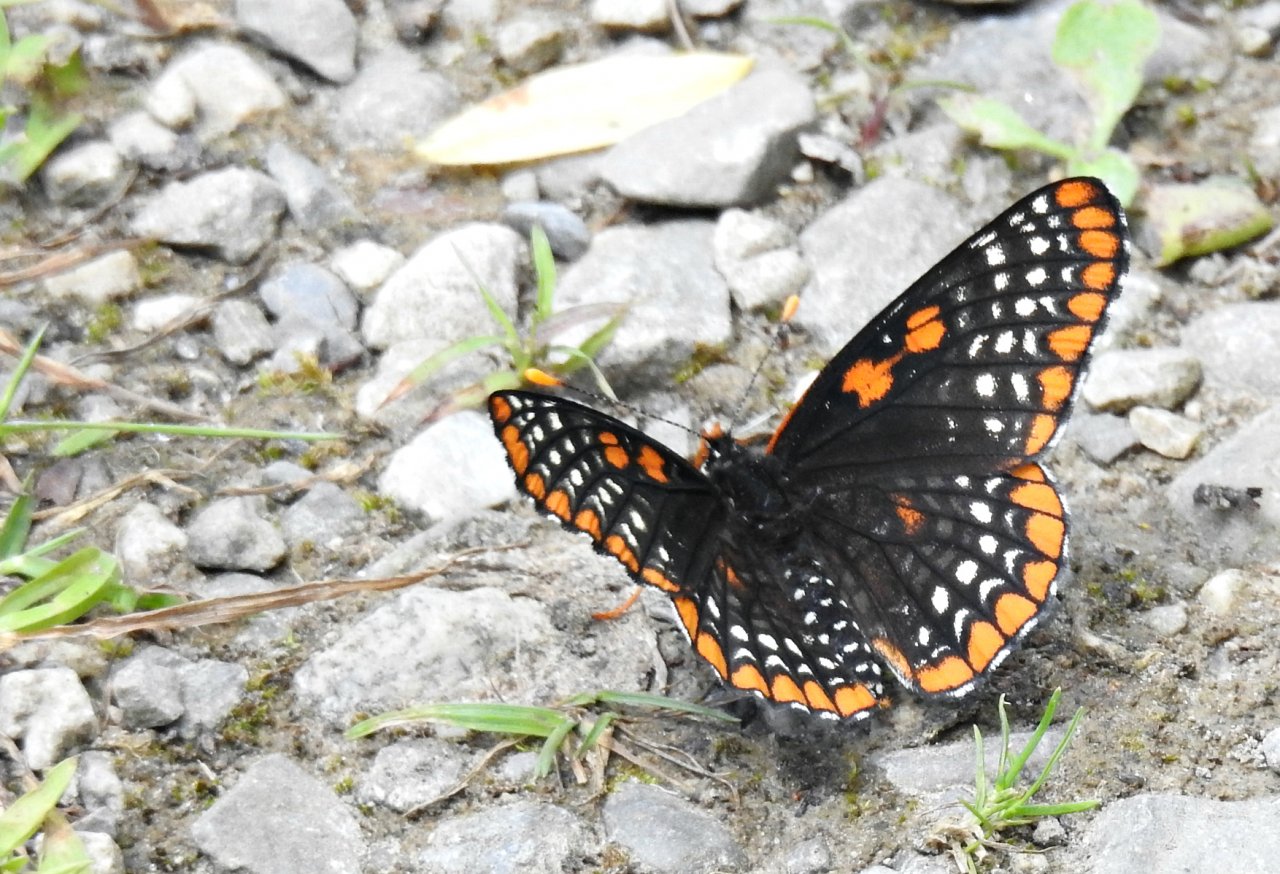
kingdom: Animalia
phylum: Arthropoda
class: Insecta
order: Lepidoptera
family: Nymphalidae
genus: Euphydryas
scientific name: Euphydryas phaeton
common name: Baltimore Checkerspot
